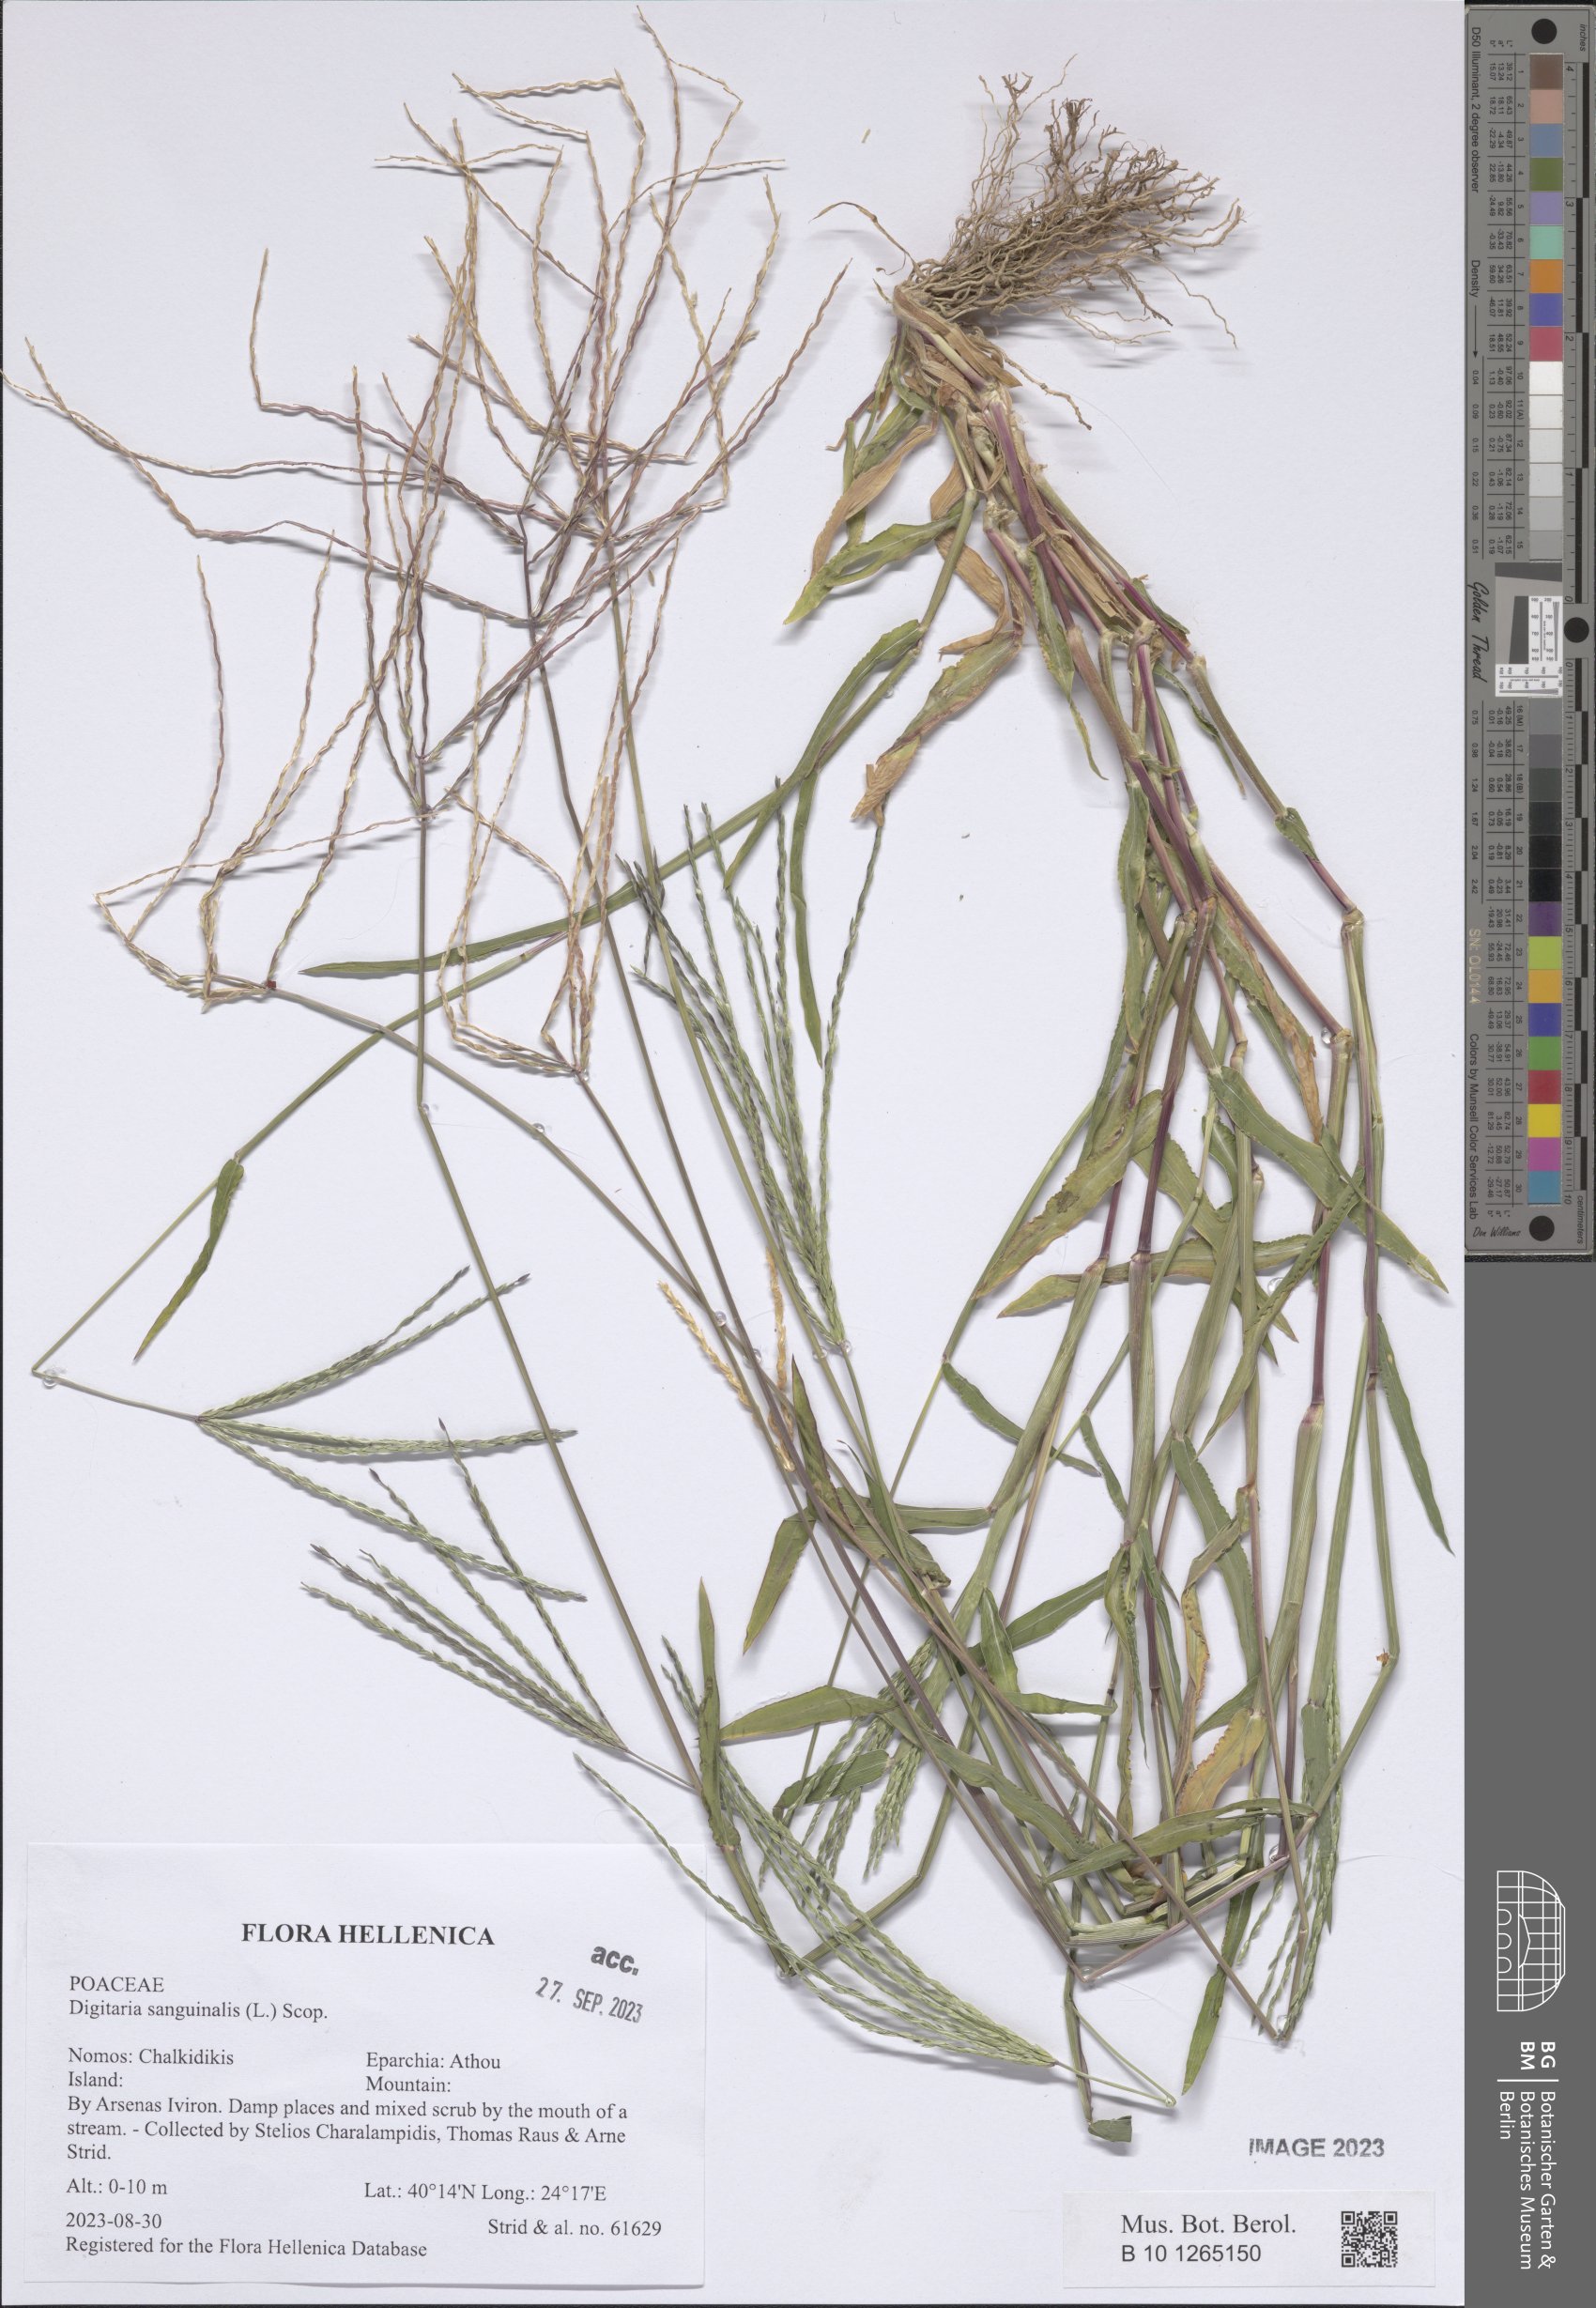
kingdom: Plantae
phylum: Tracheophyta
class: Liliopsida
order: Poales
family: Poaceae
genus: Digitaria
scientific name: Digitaria sanguinalis
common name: Hairy crabgrass
